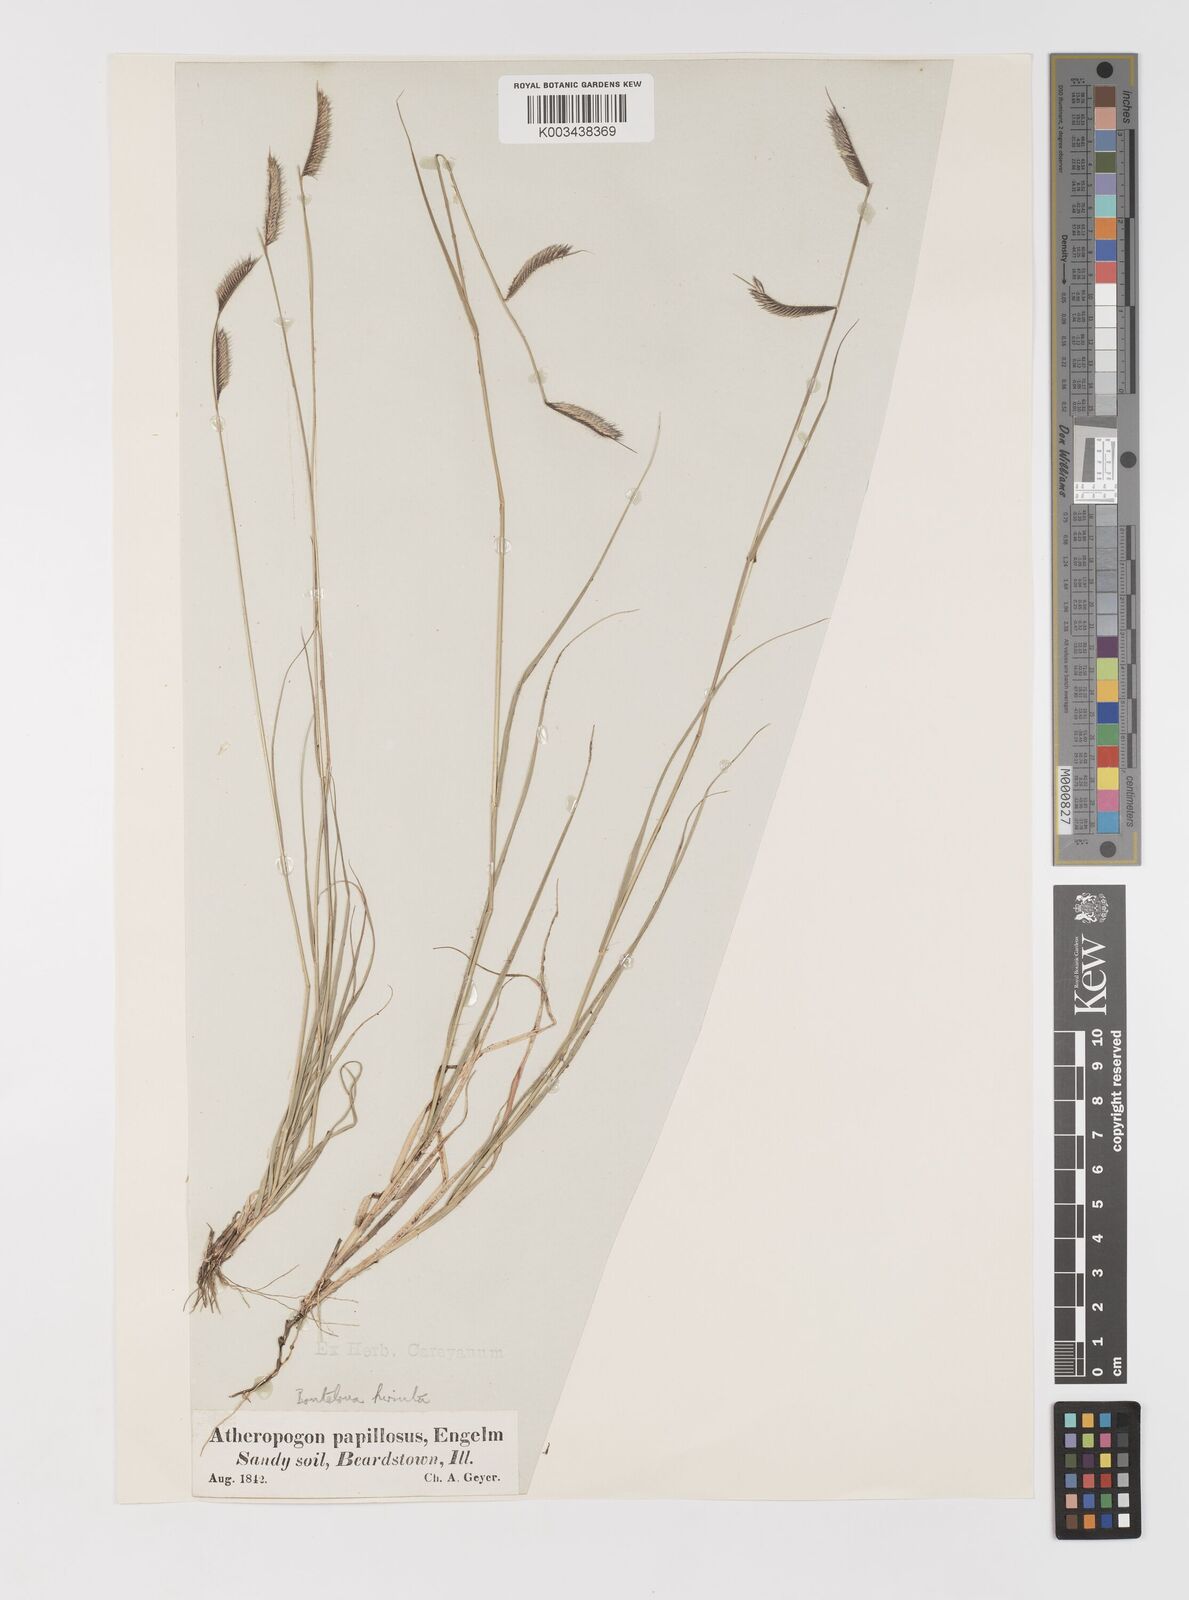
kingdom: Plantae
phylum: Tracheophyta
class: Liliopsida
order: Poales
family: Poaceae
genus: Bouteloua
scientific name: Bouteloua hirsuta
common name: Hairy grama
